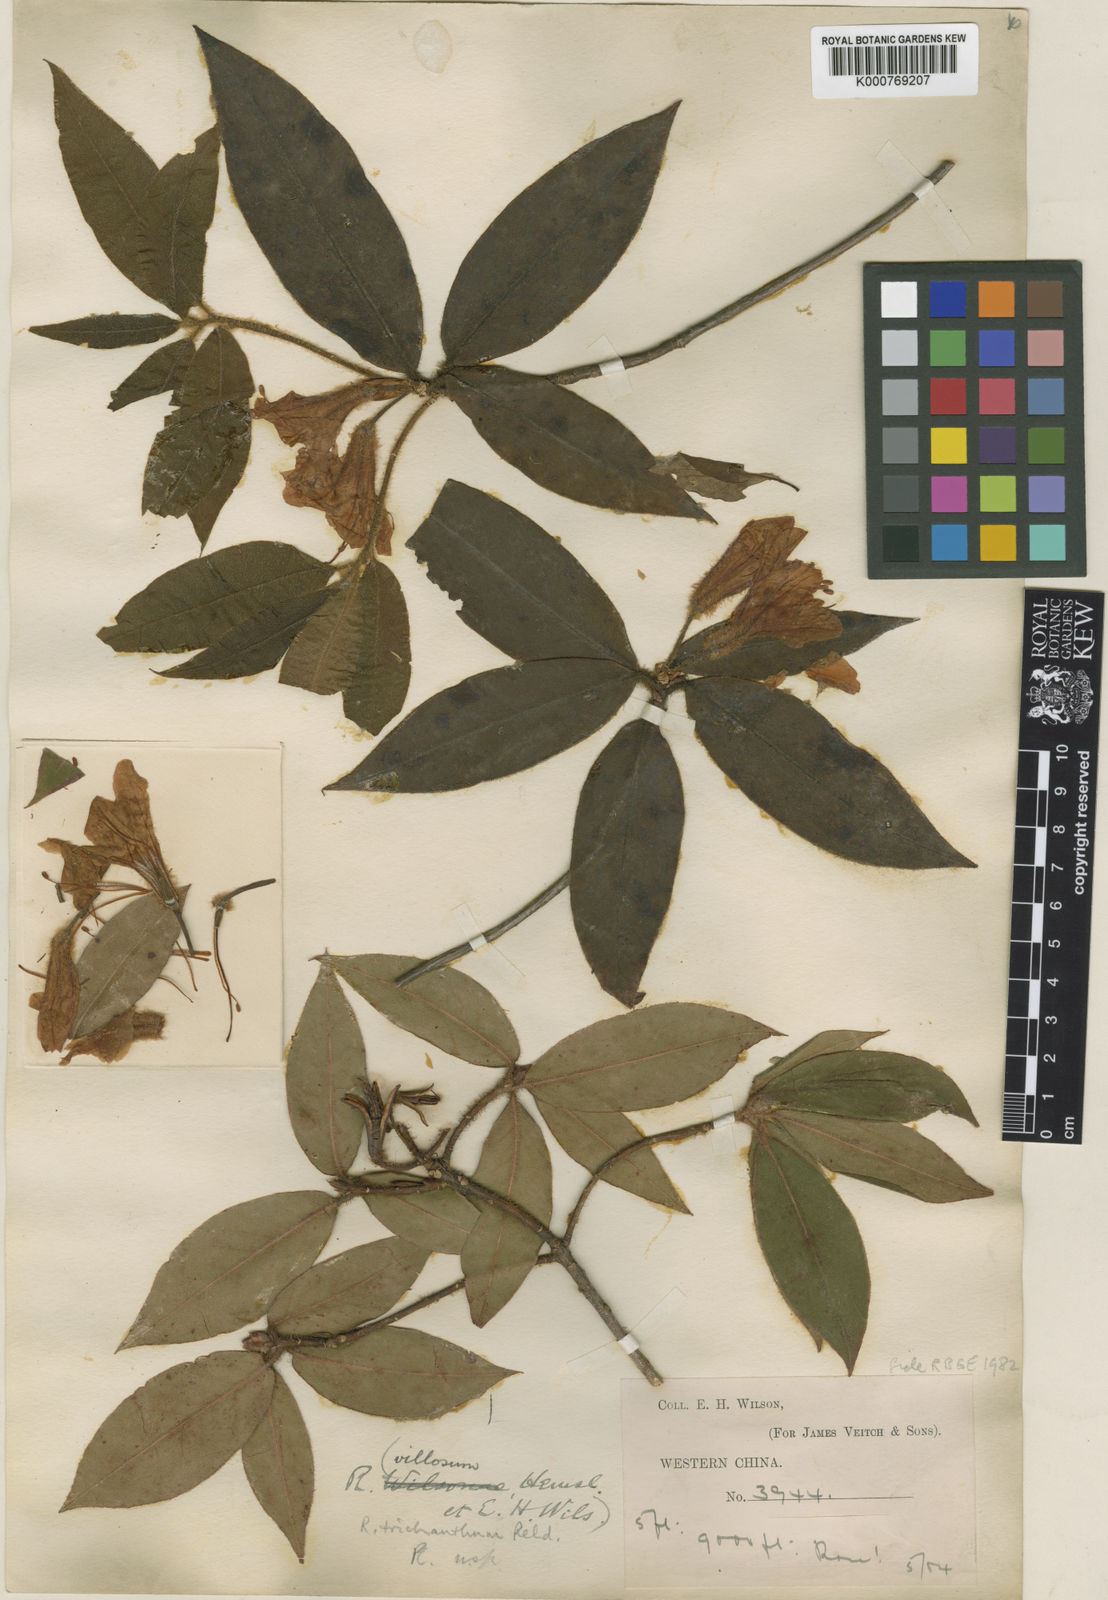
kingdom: Plantae
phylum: Tracheophyta
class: Magnoliopsida
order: Ericales
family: Ericaceae
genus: Rhododendron
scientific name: Rhododendron trichanthum
